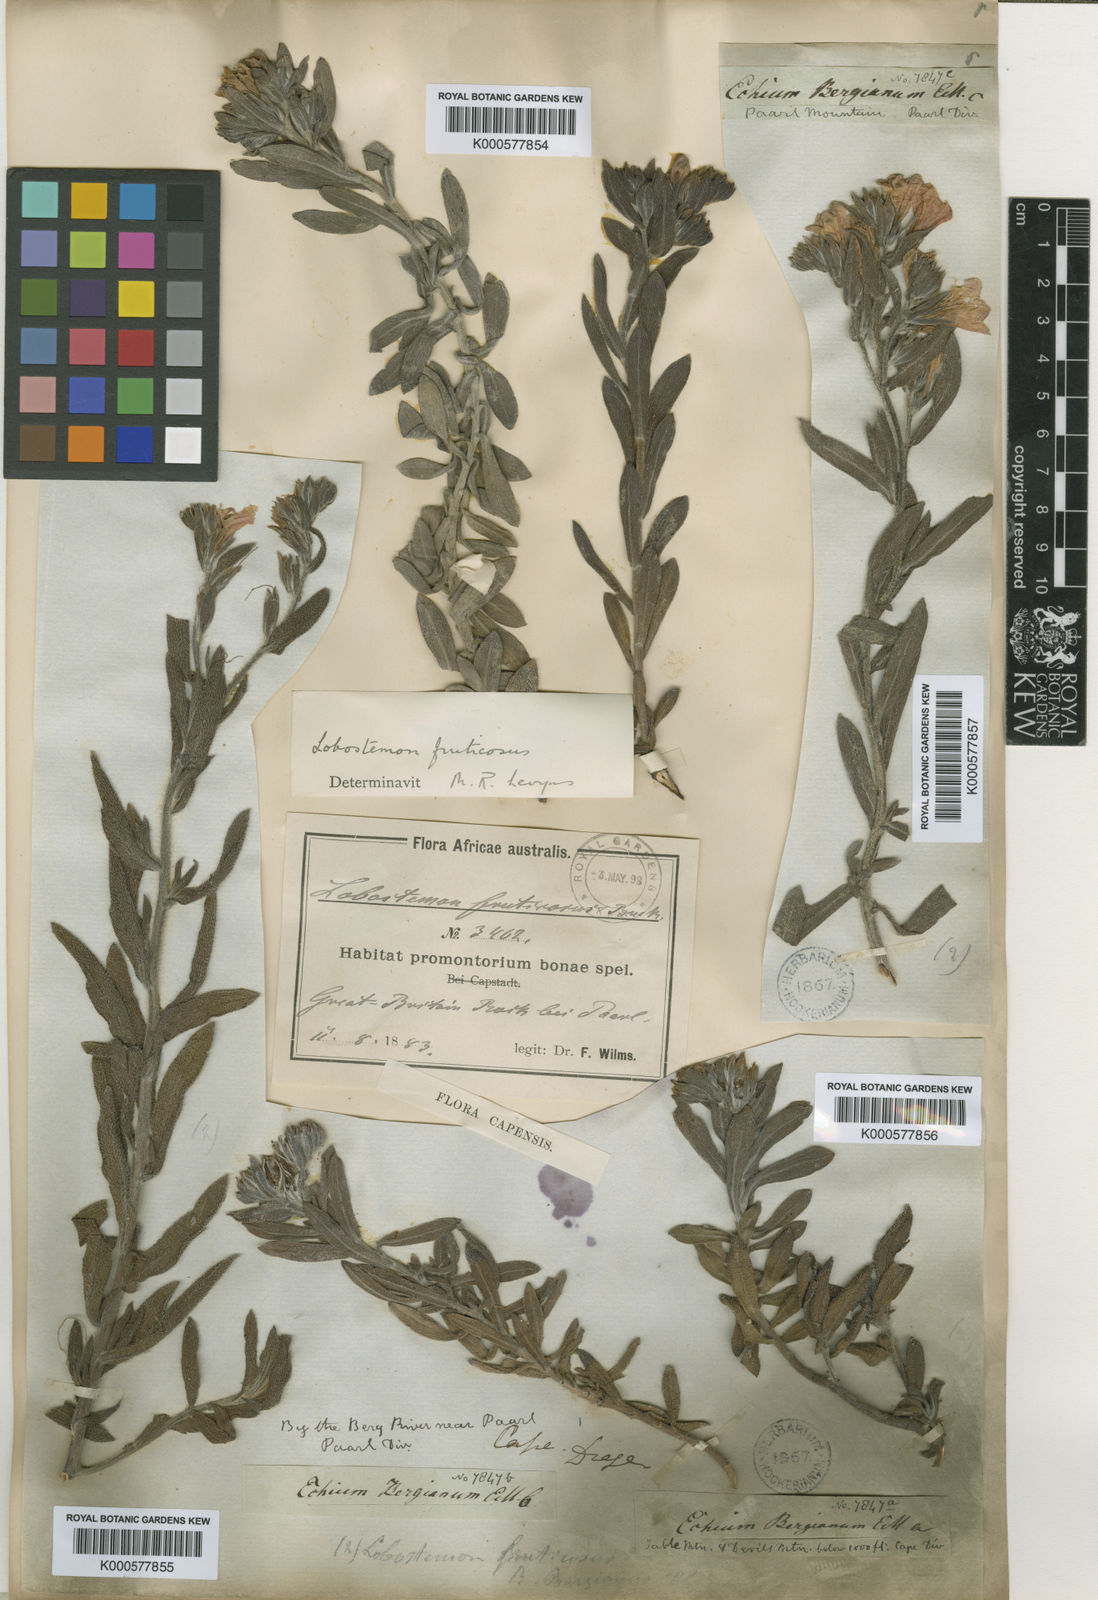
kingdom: Plantae
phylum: Tracheophyta
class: Magnoliopsida
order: Boraginales
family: Boraginaceae
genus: Lobostemon
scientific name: Lobostemon fruticosus
